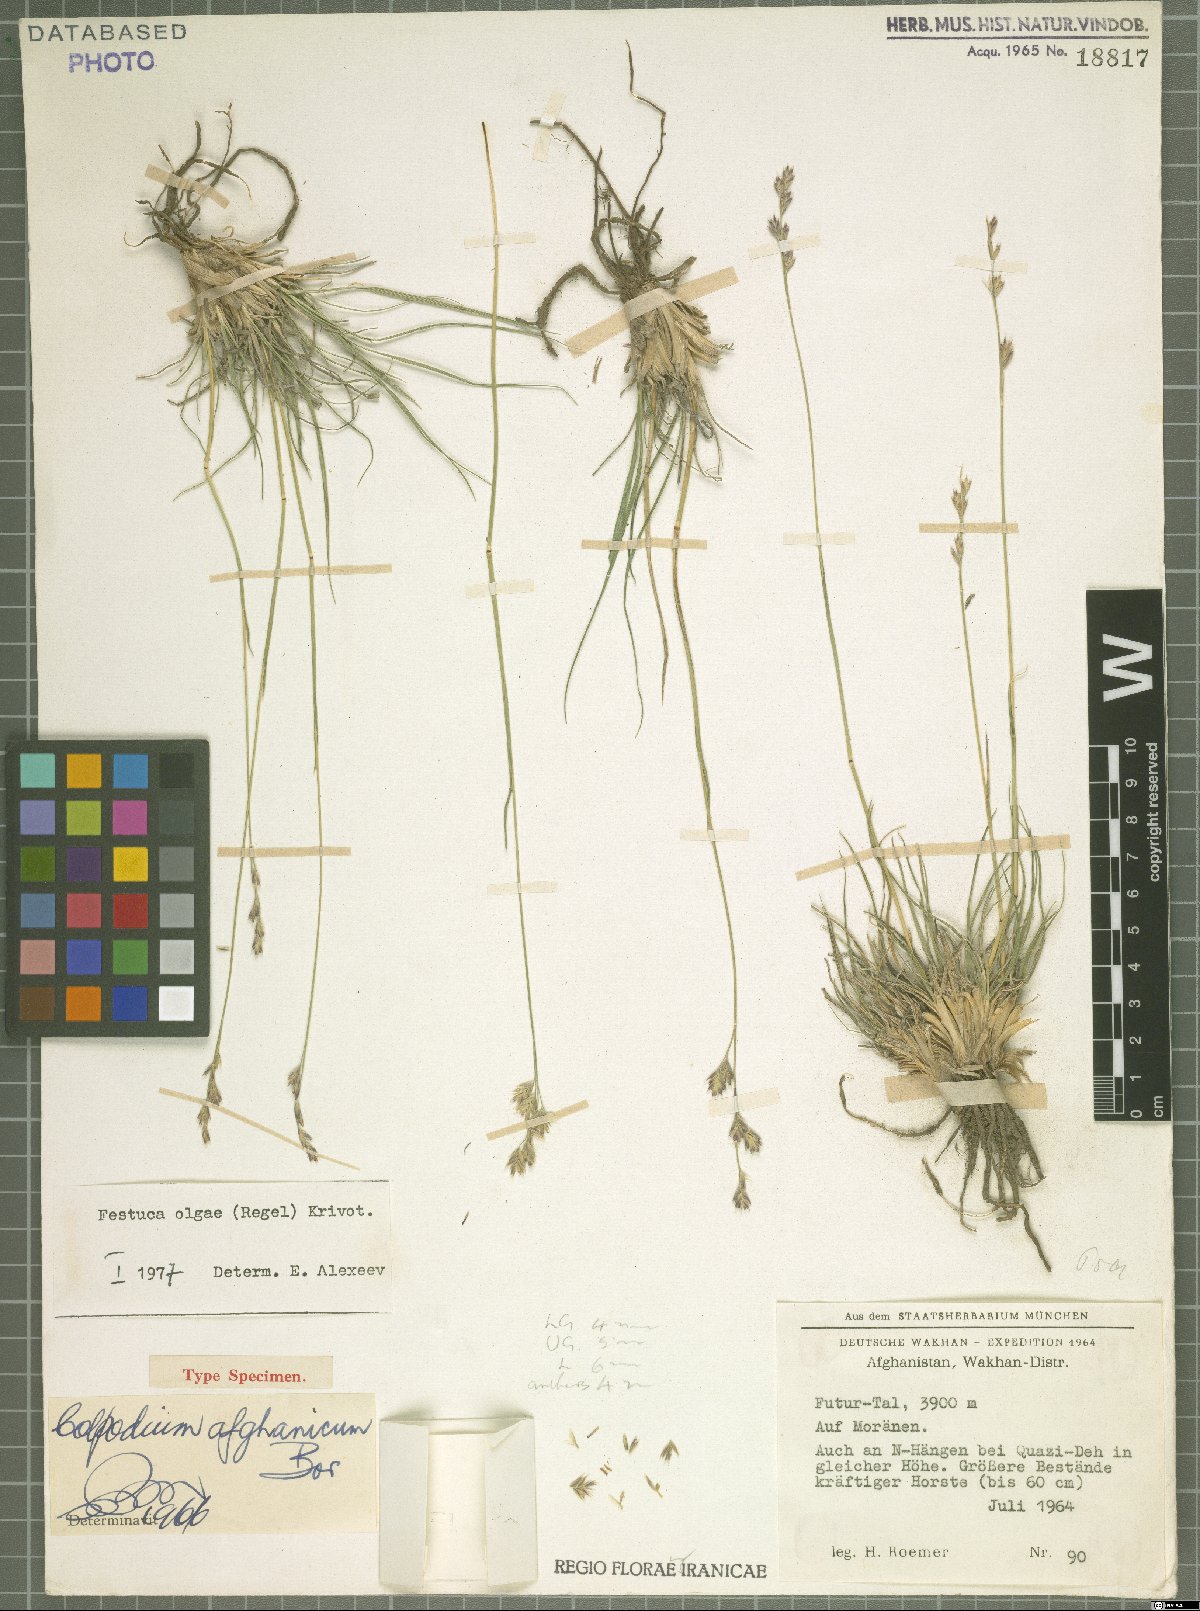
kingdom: Plantae
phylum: Tracheophyta
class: Liliopsida
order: Poales
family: Poaceae
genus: Festuca
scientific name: Festuca olgae
